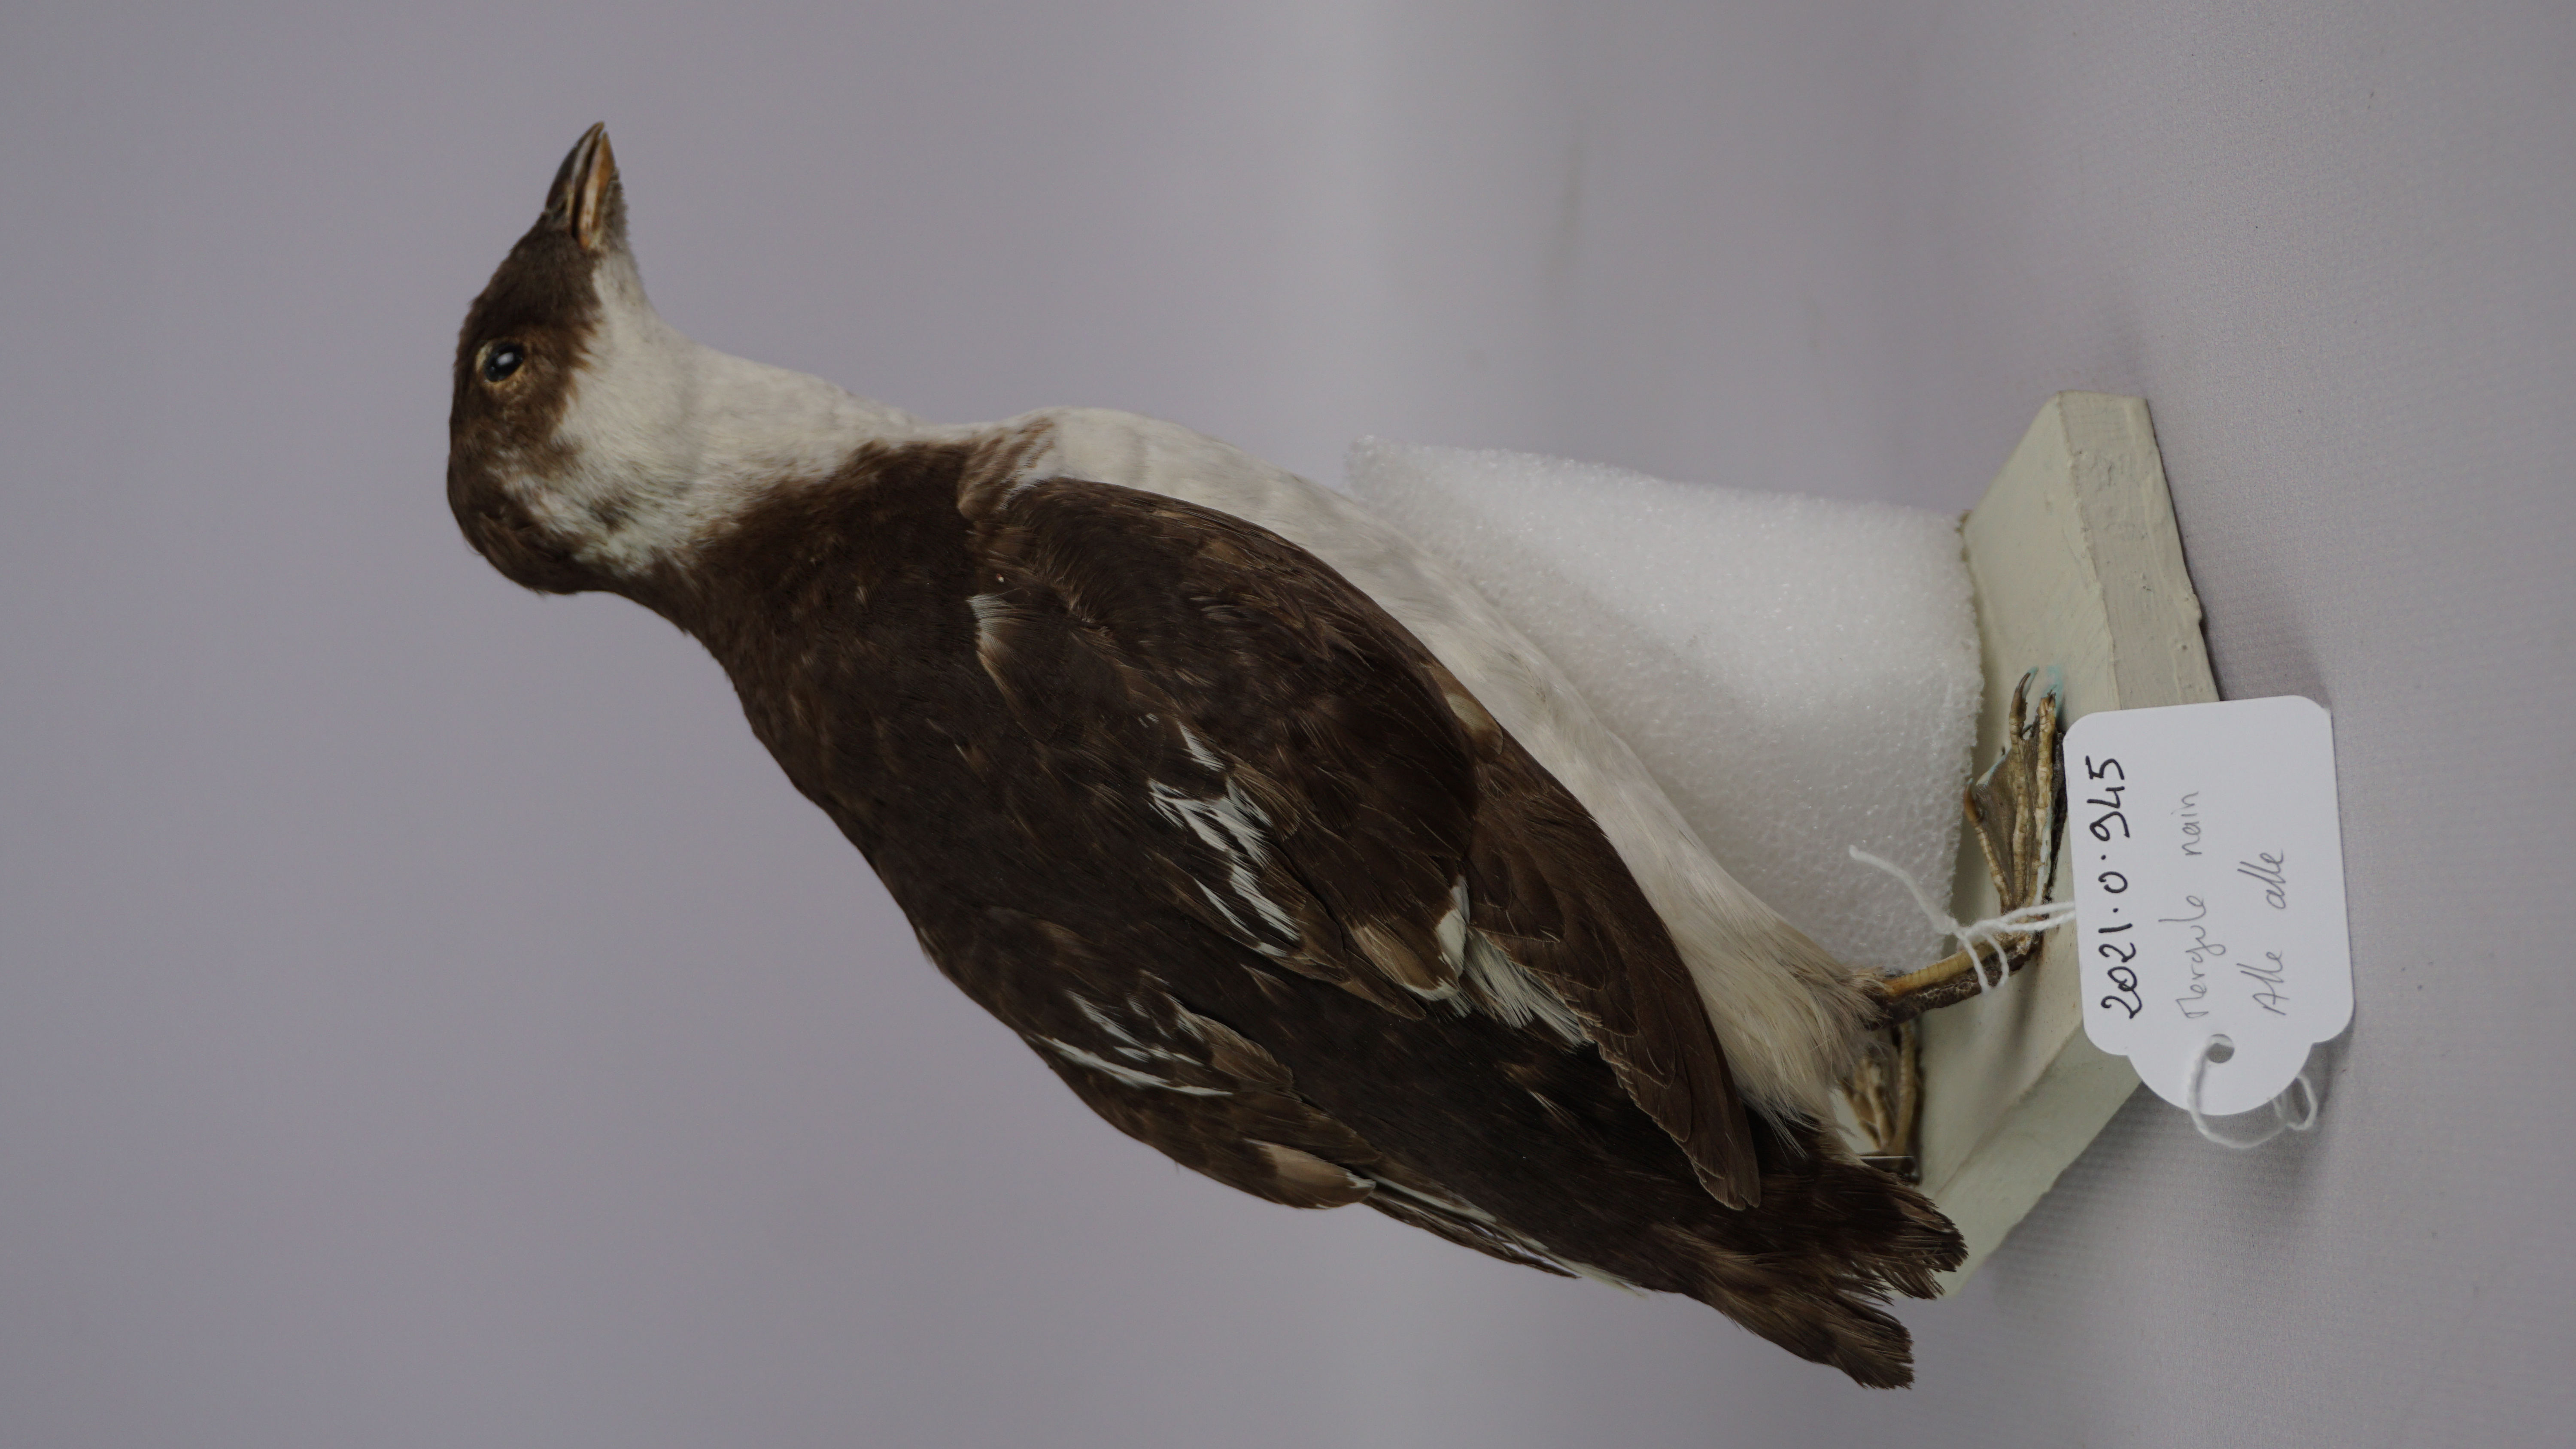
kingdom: Animalia
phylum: Chordata
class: Aves
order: Charadriiformes
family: Alcidae
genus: Alle
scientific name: Alle alle
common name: Little auk
